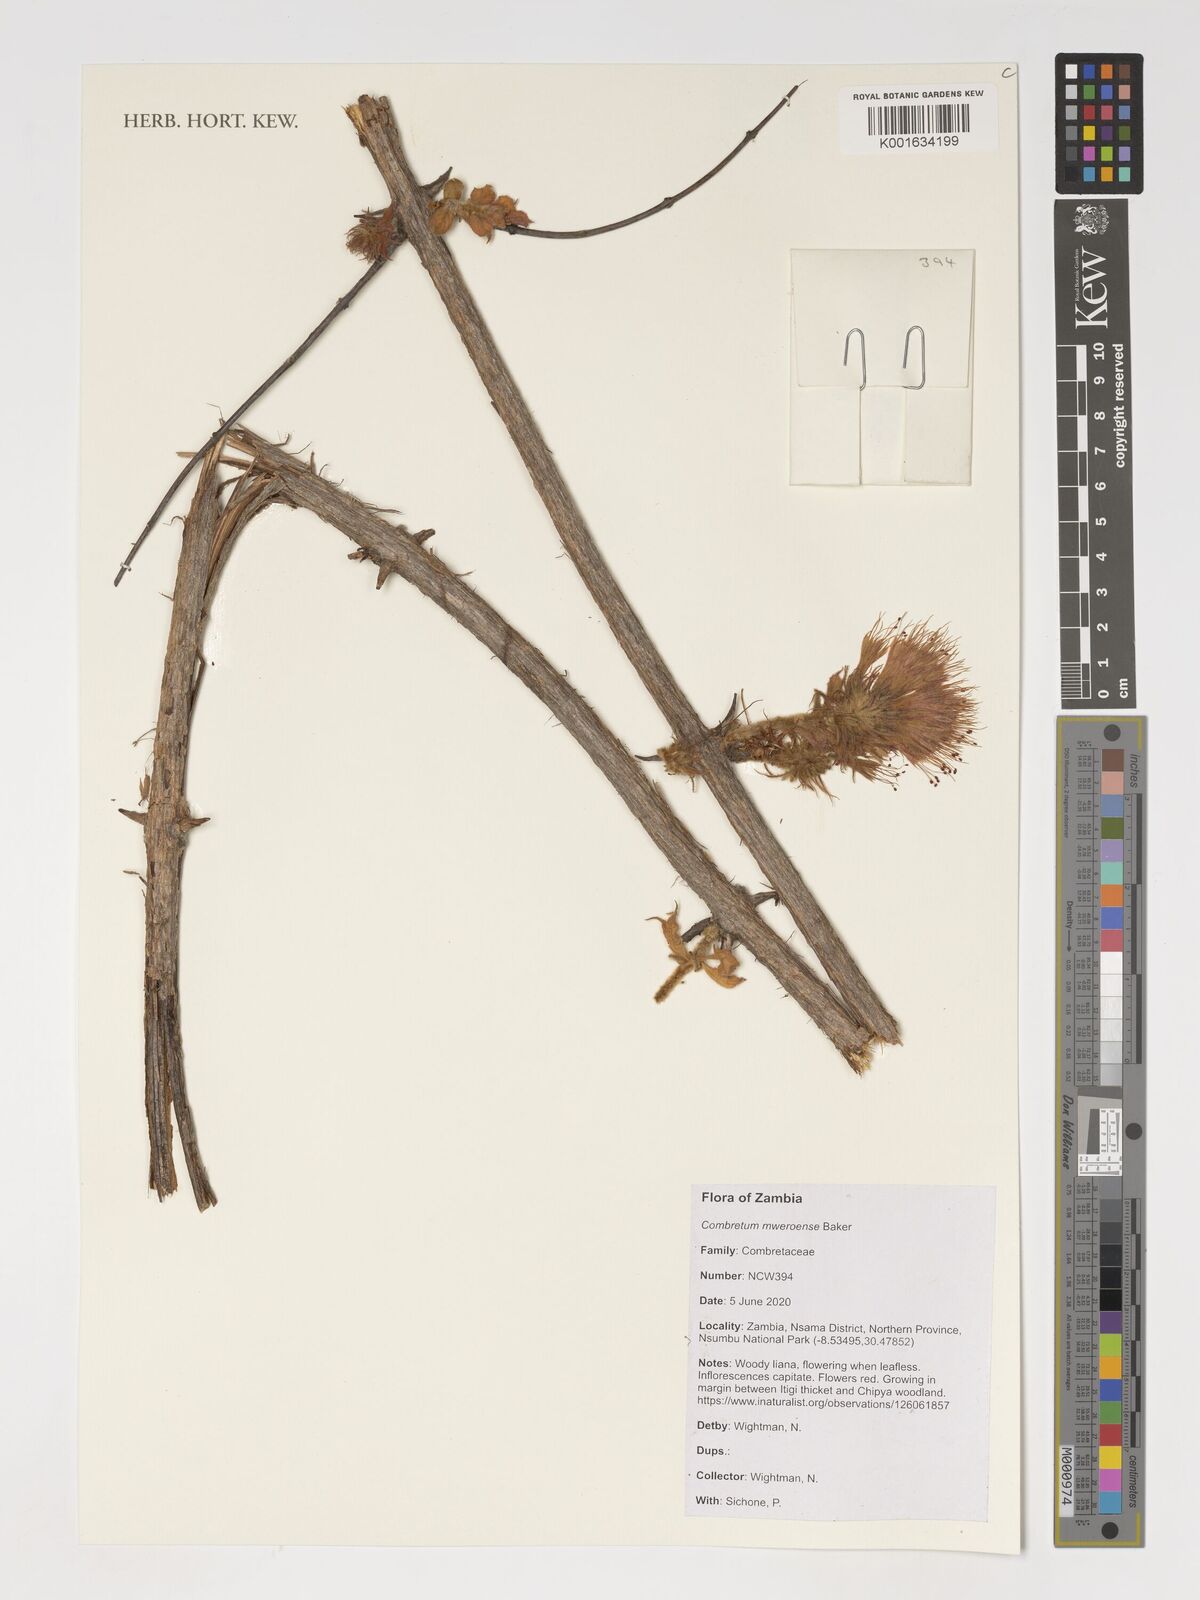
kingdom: Plantae
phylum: Tracheophyta
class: Magnoliopsida
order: Myrtales
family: Combretaceae
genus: Combretum
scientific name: Combretum mweroense
